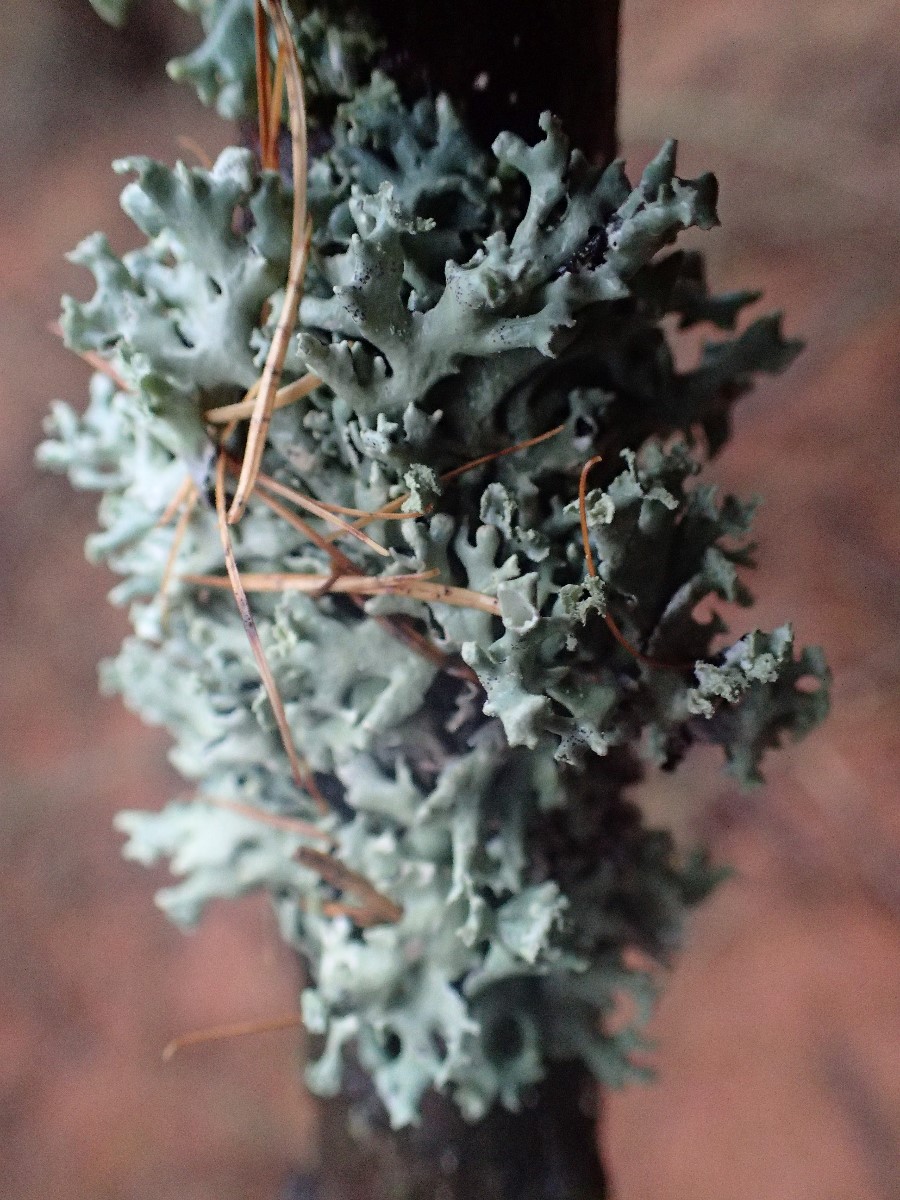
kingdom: Fungi
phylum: Ascomycota
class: Lecanoromycetes
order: Lecanorales
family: Parmeliaceae
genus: Hypogymnia
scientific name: Hypogymnia physodes
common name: almindelig kvistlav
